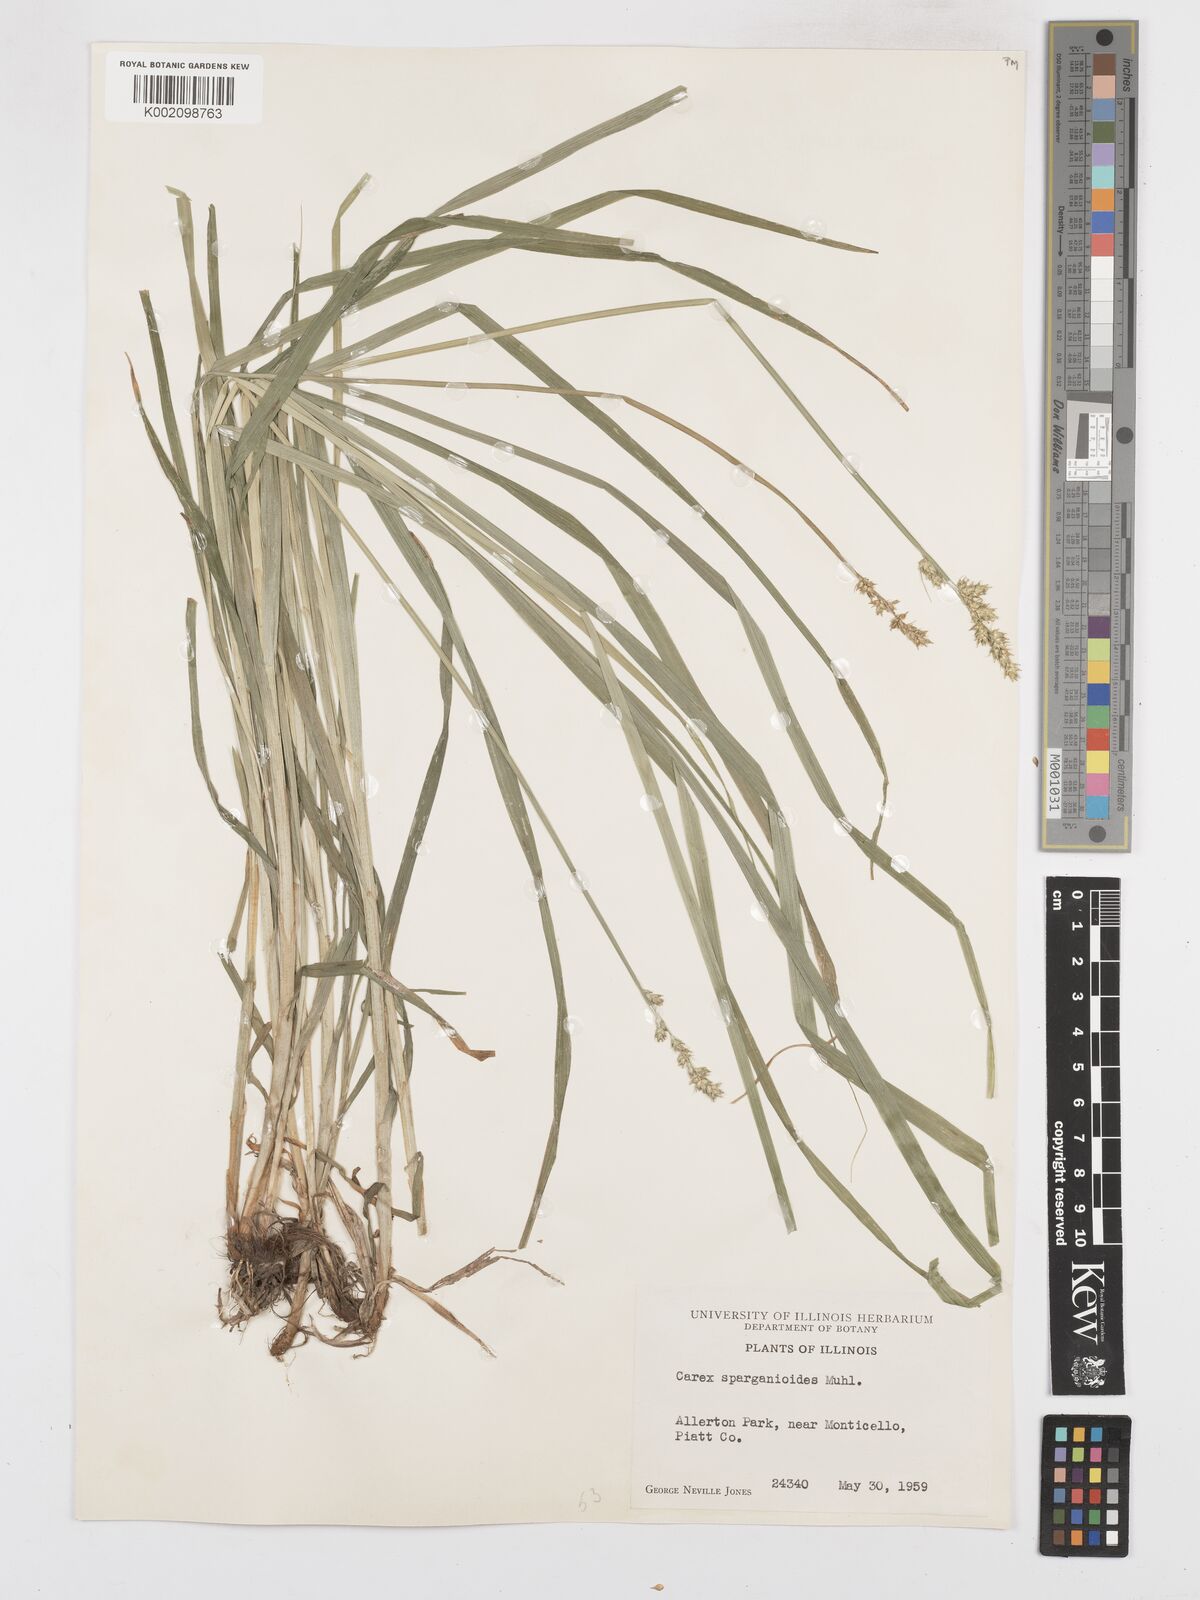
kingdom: Plantae
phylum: Tracheophyta
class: Liliopsida
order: Poales
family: Cyperaceae
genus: Carex
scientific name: Carex sparganioides
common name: Burreed sedge
